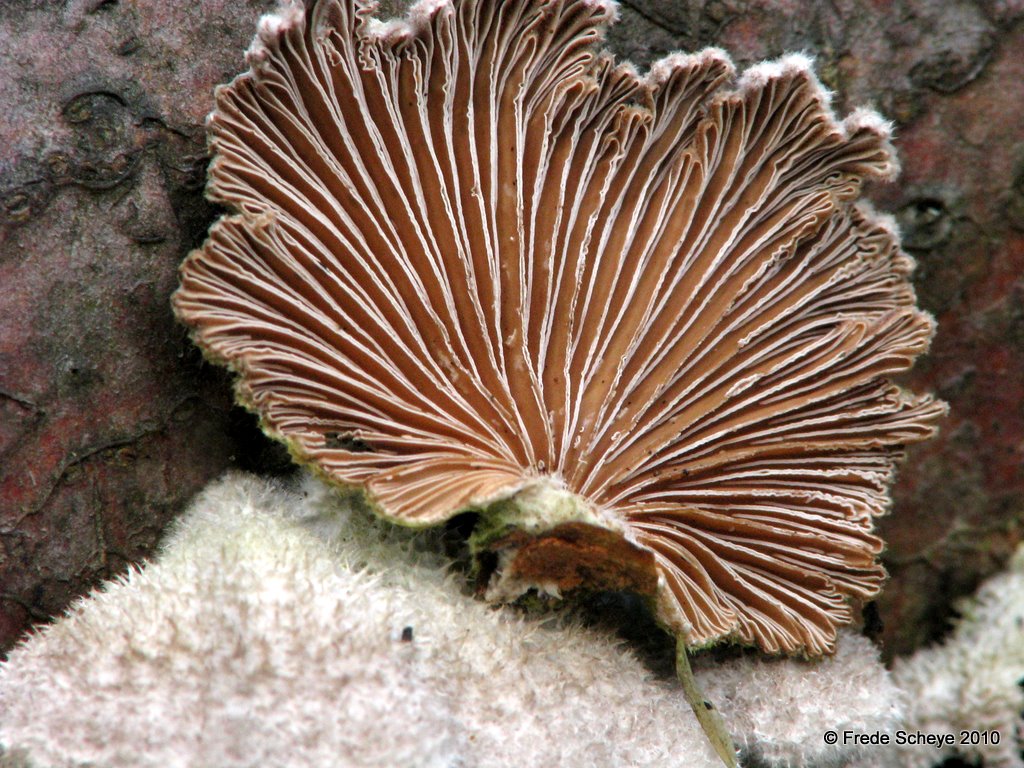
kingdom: Fungi
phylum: Basidiomycota
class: Agaricomycetes
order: Agaricales
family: Schizophyllaceae
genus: Schizophyllum
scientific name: Schizophyllum commune
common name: kløvblad
